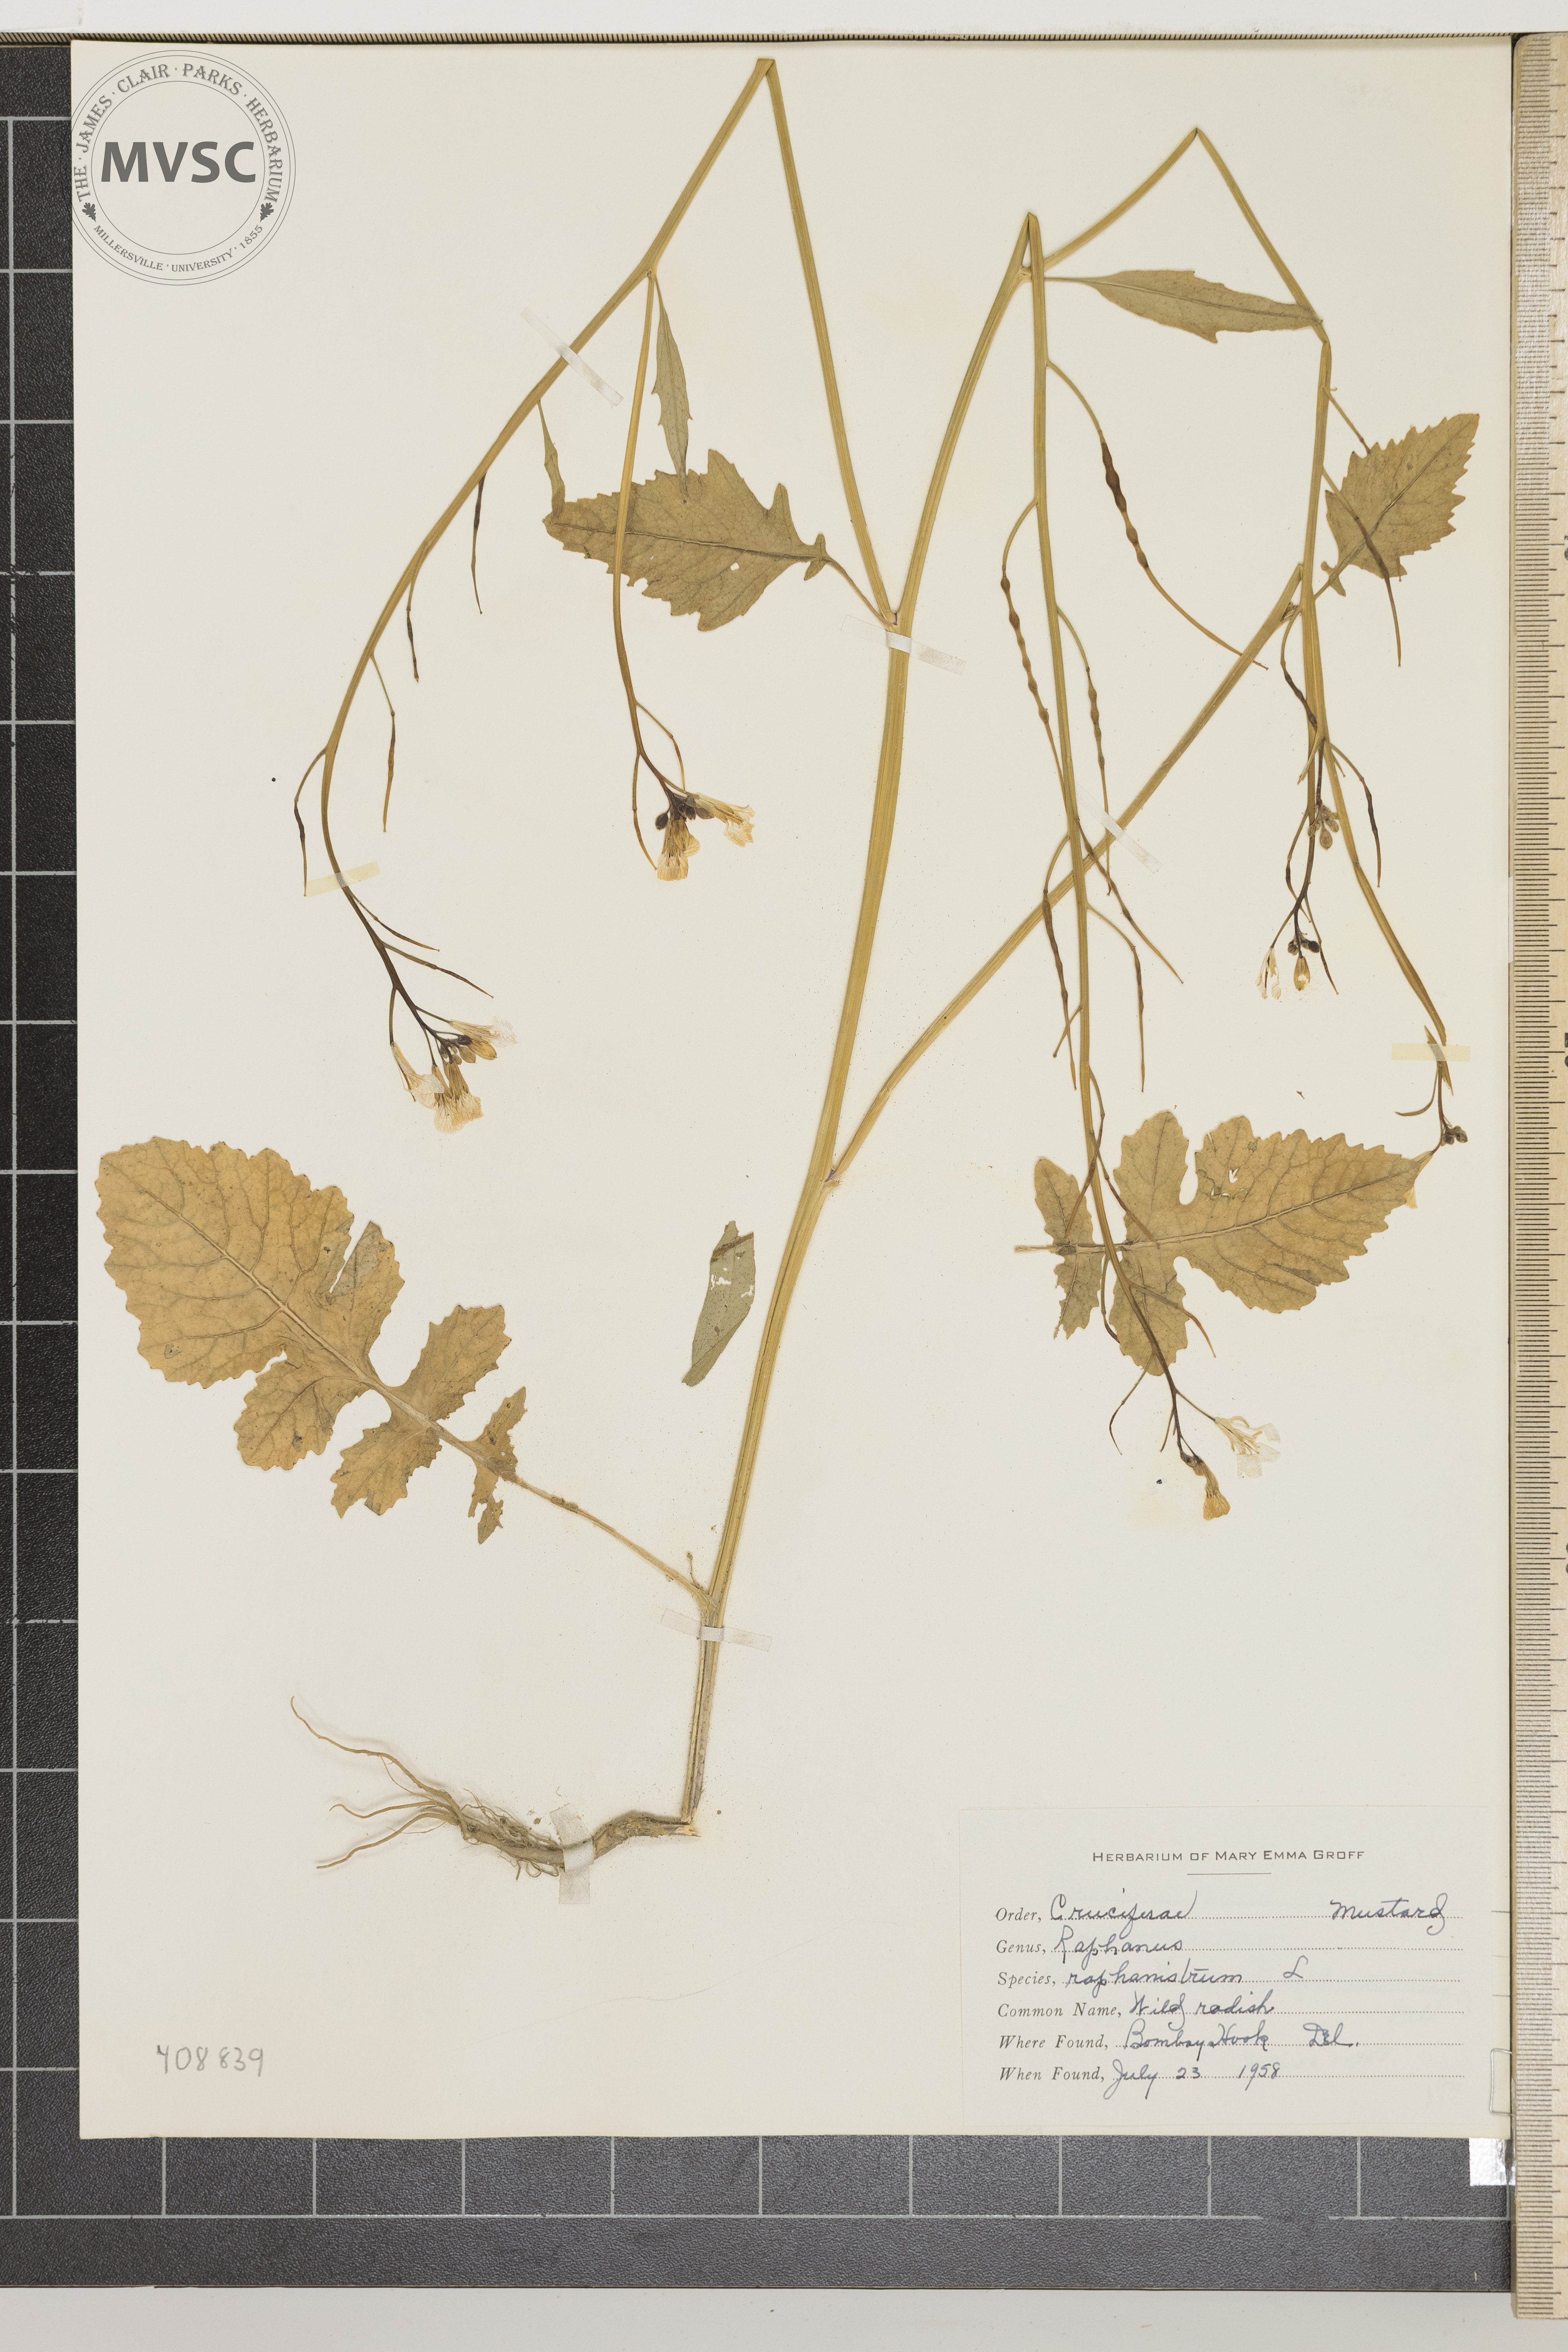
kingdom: Plantae
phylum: Tracheophyta
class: Magnoliopsida
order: Brassicales
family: Brassicaceae
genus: Raphanus
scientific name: Raphanus raphanistrum
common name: Wild Radish
